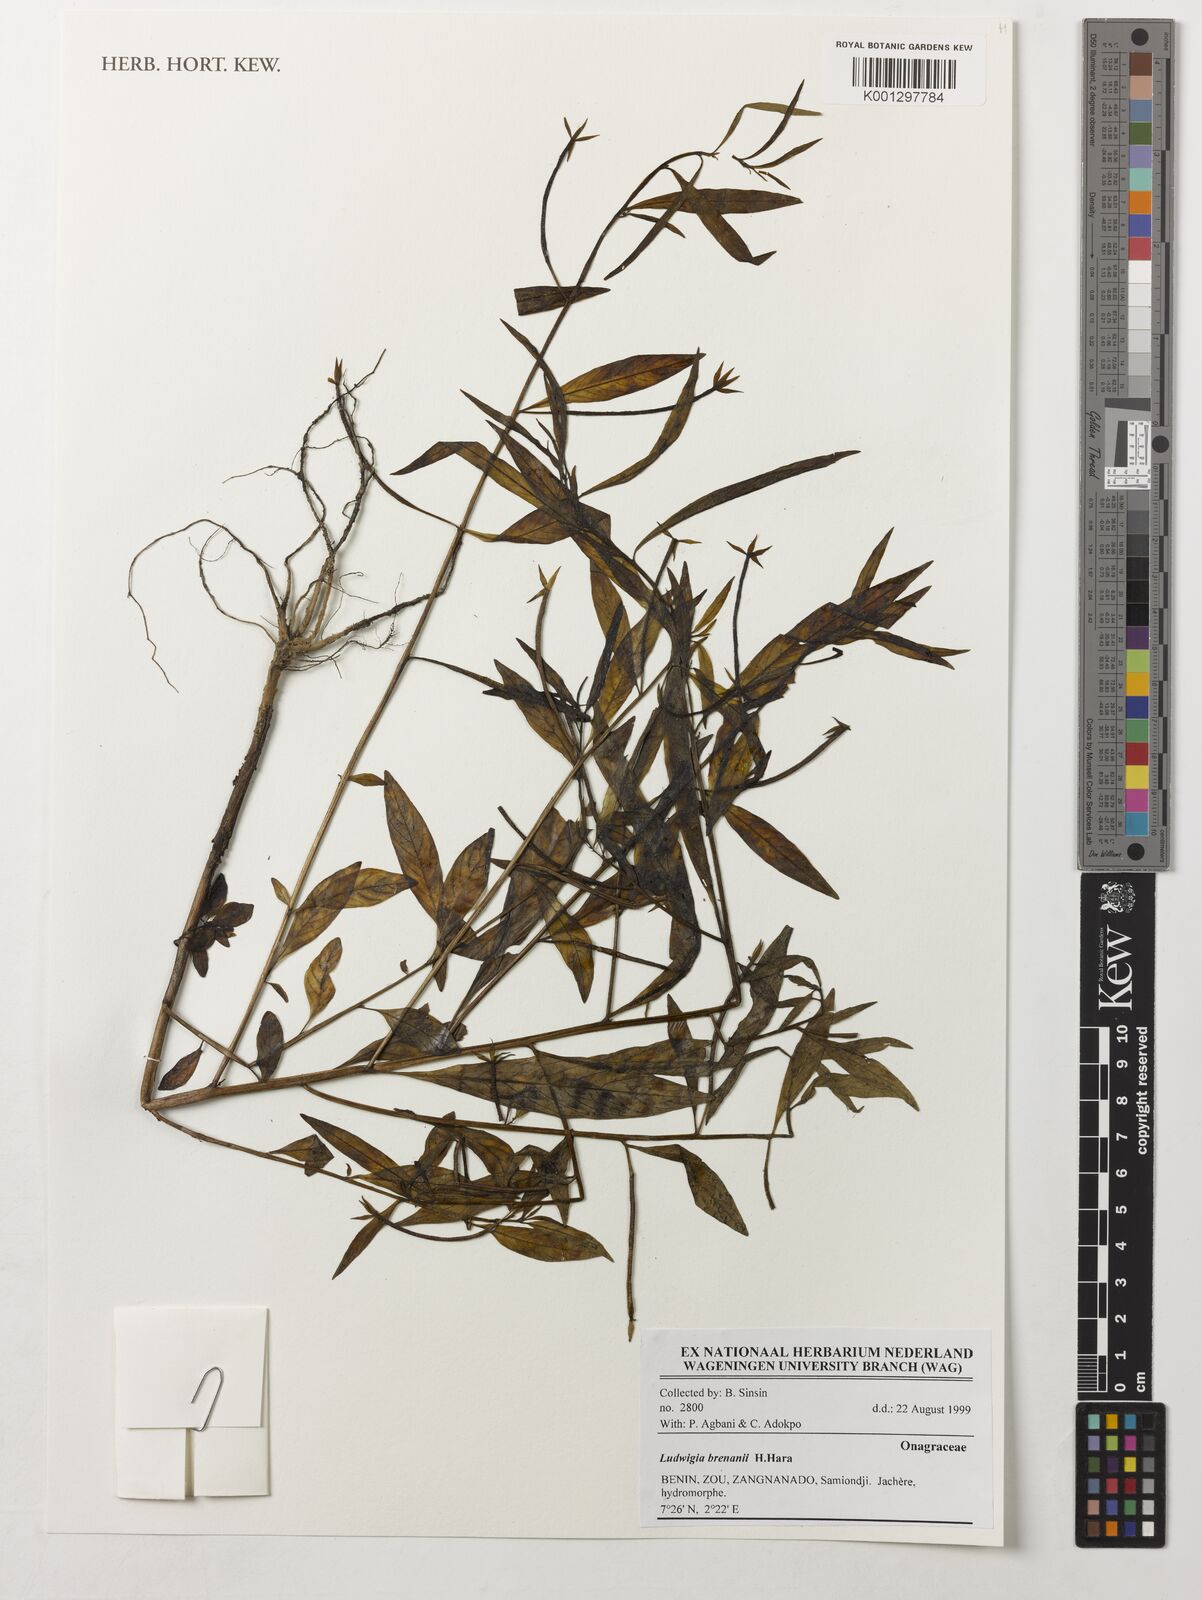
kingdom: Plantae
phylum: Tracheophyta
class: Magnoliopsida
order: Myrtales
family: Onagraceae
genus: Ludwigia
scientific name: Ludwigia brenanii
